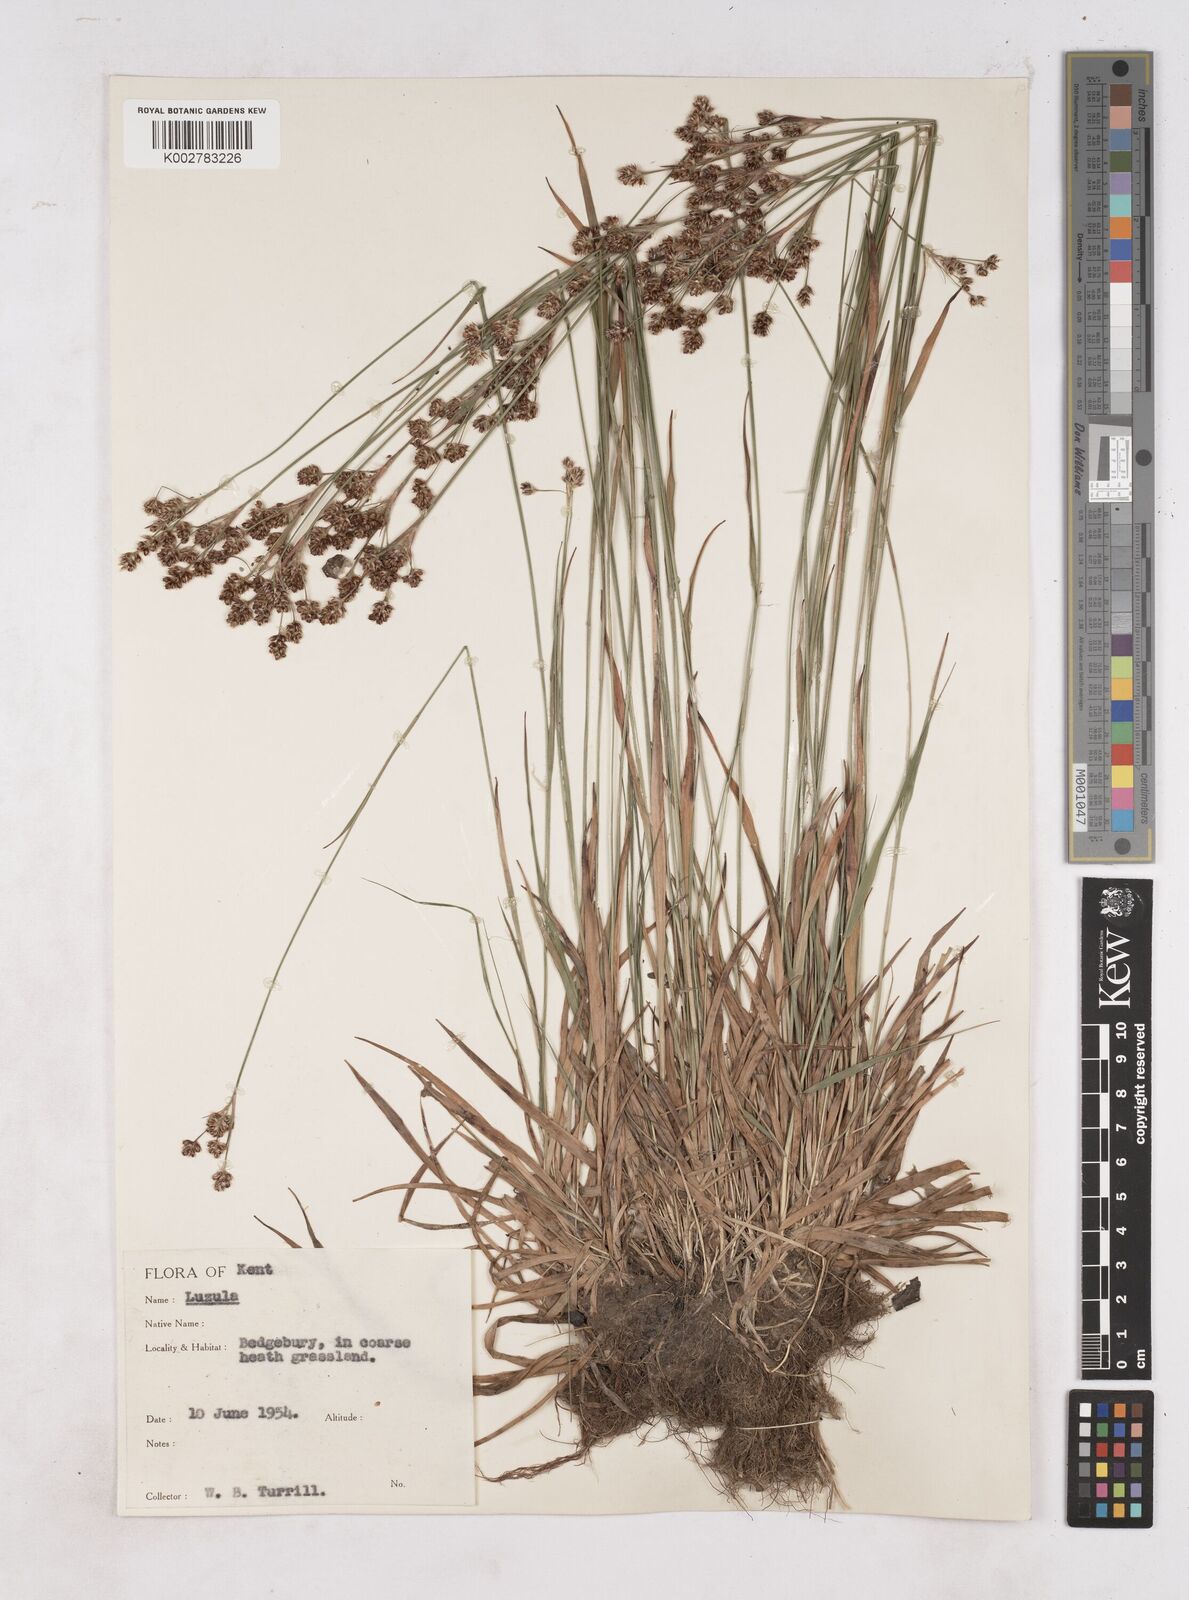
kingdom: Plantae
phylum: Tracheophyta
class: Liliopsida
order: Poales
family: Juncaceae
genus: Luzula
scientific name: Luzula multiflora
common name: Heath wood-rush
